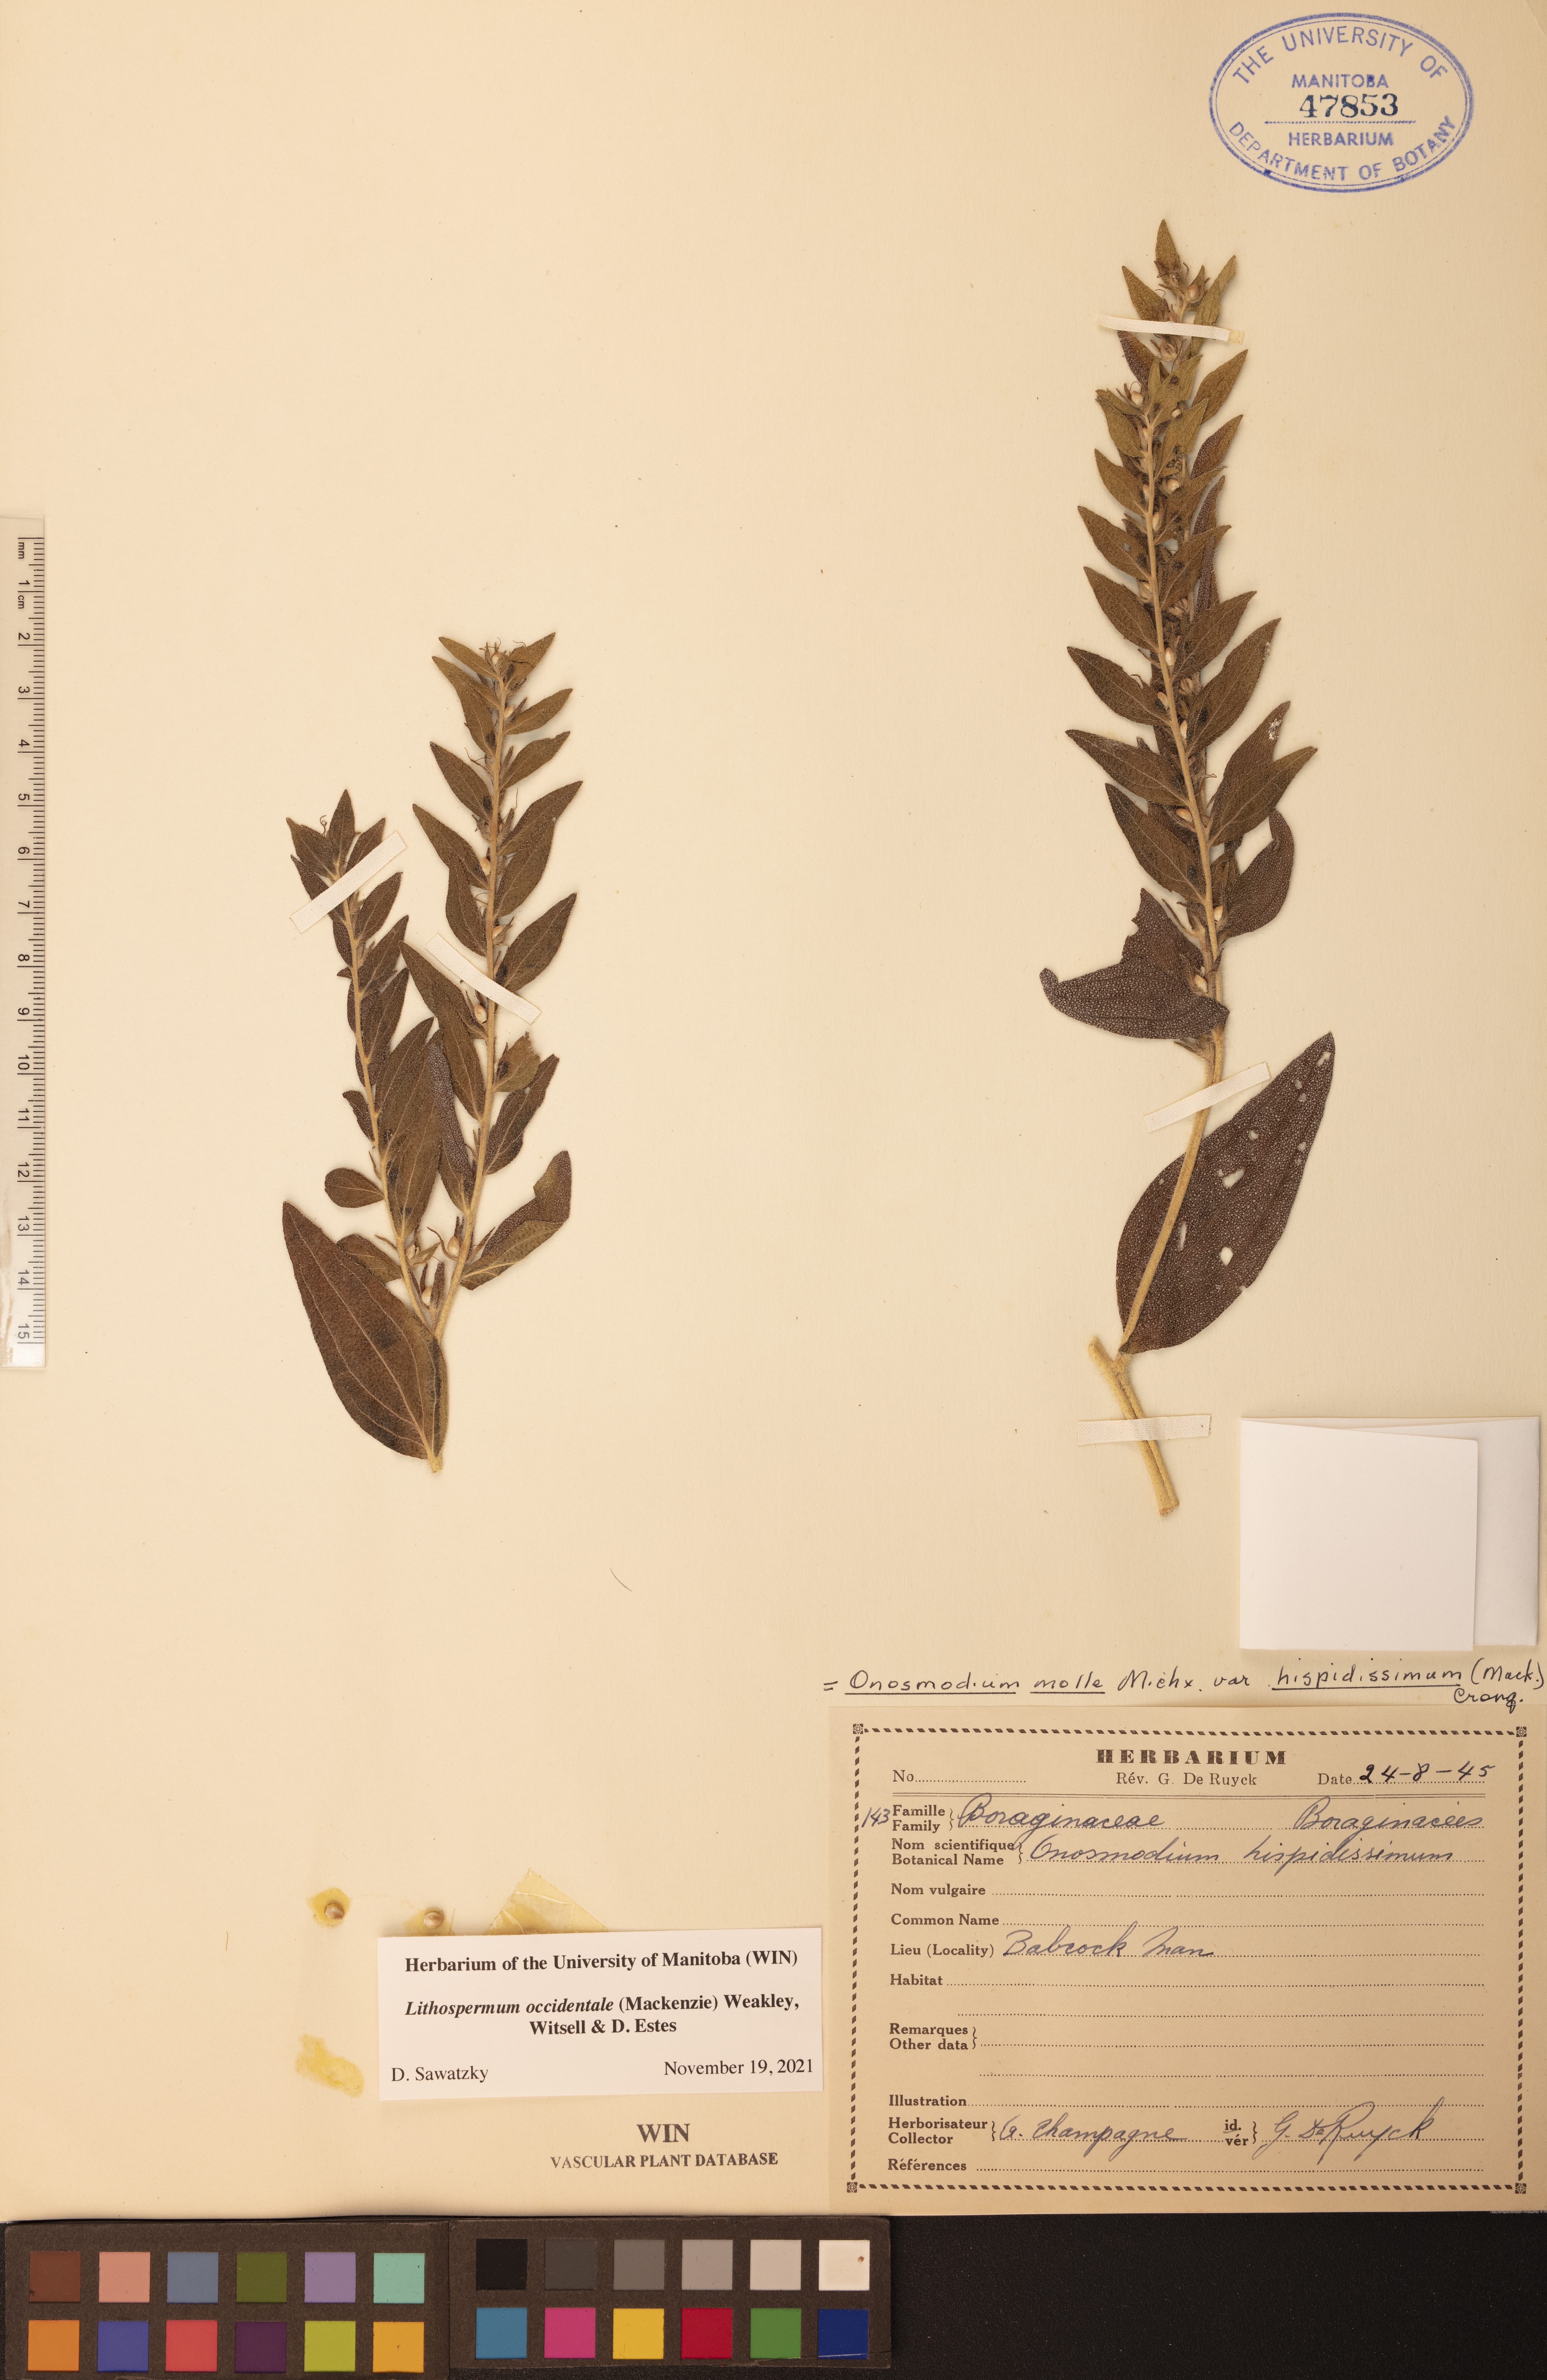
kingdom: Plantae
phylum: Tracheophyta
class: Magnoliopsida
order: Boraginales
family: Boraginaceae
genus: Lithospermum
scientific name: Lithospermum occidentale
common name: Western false gromwell
